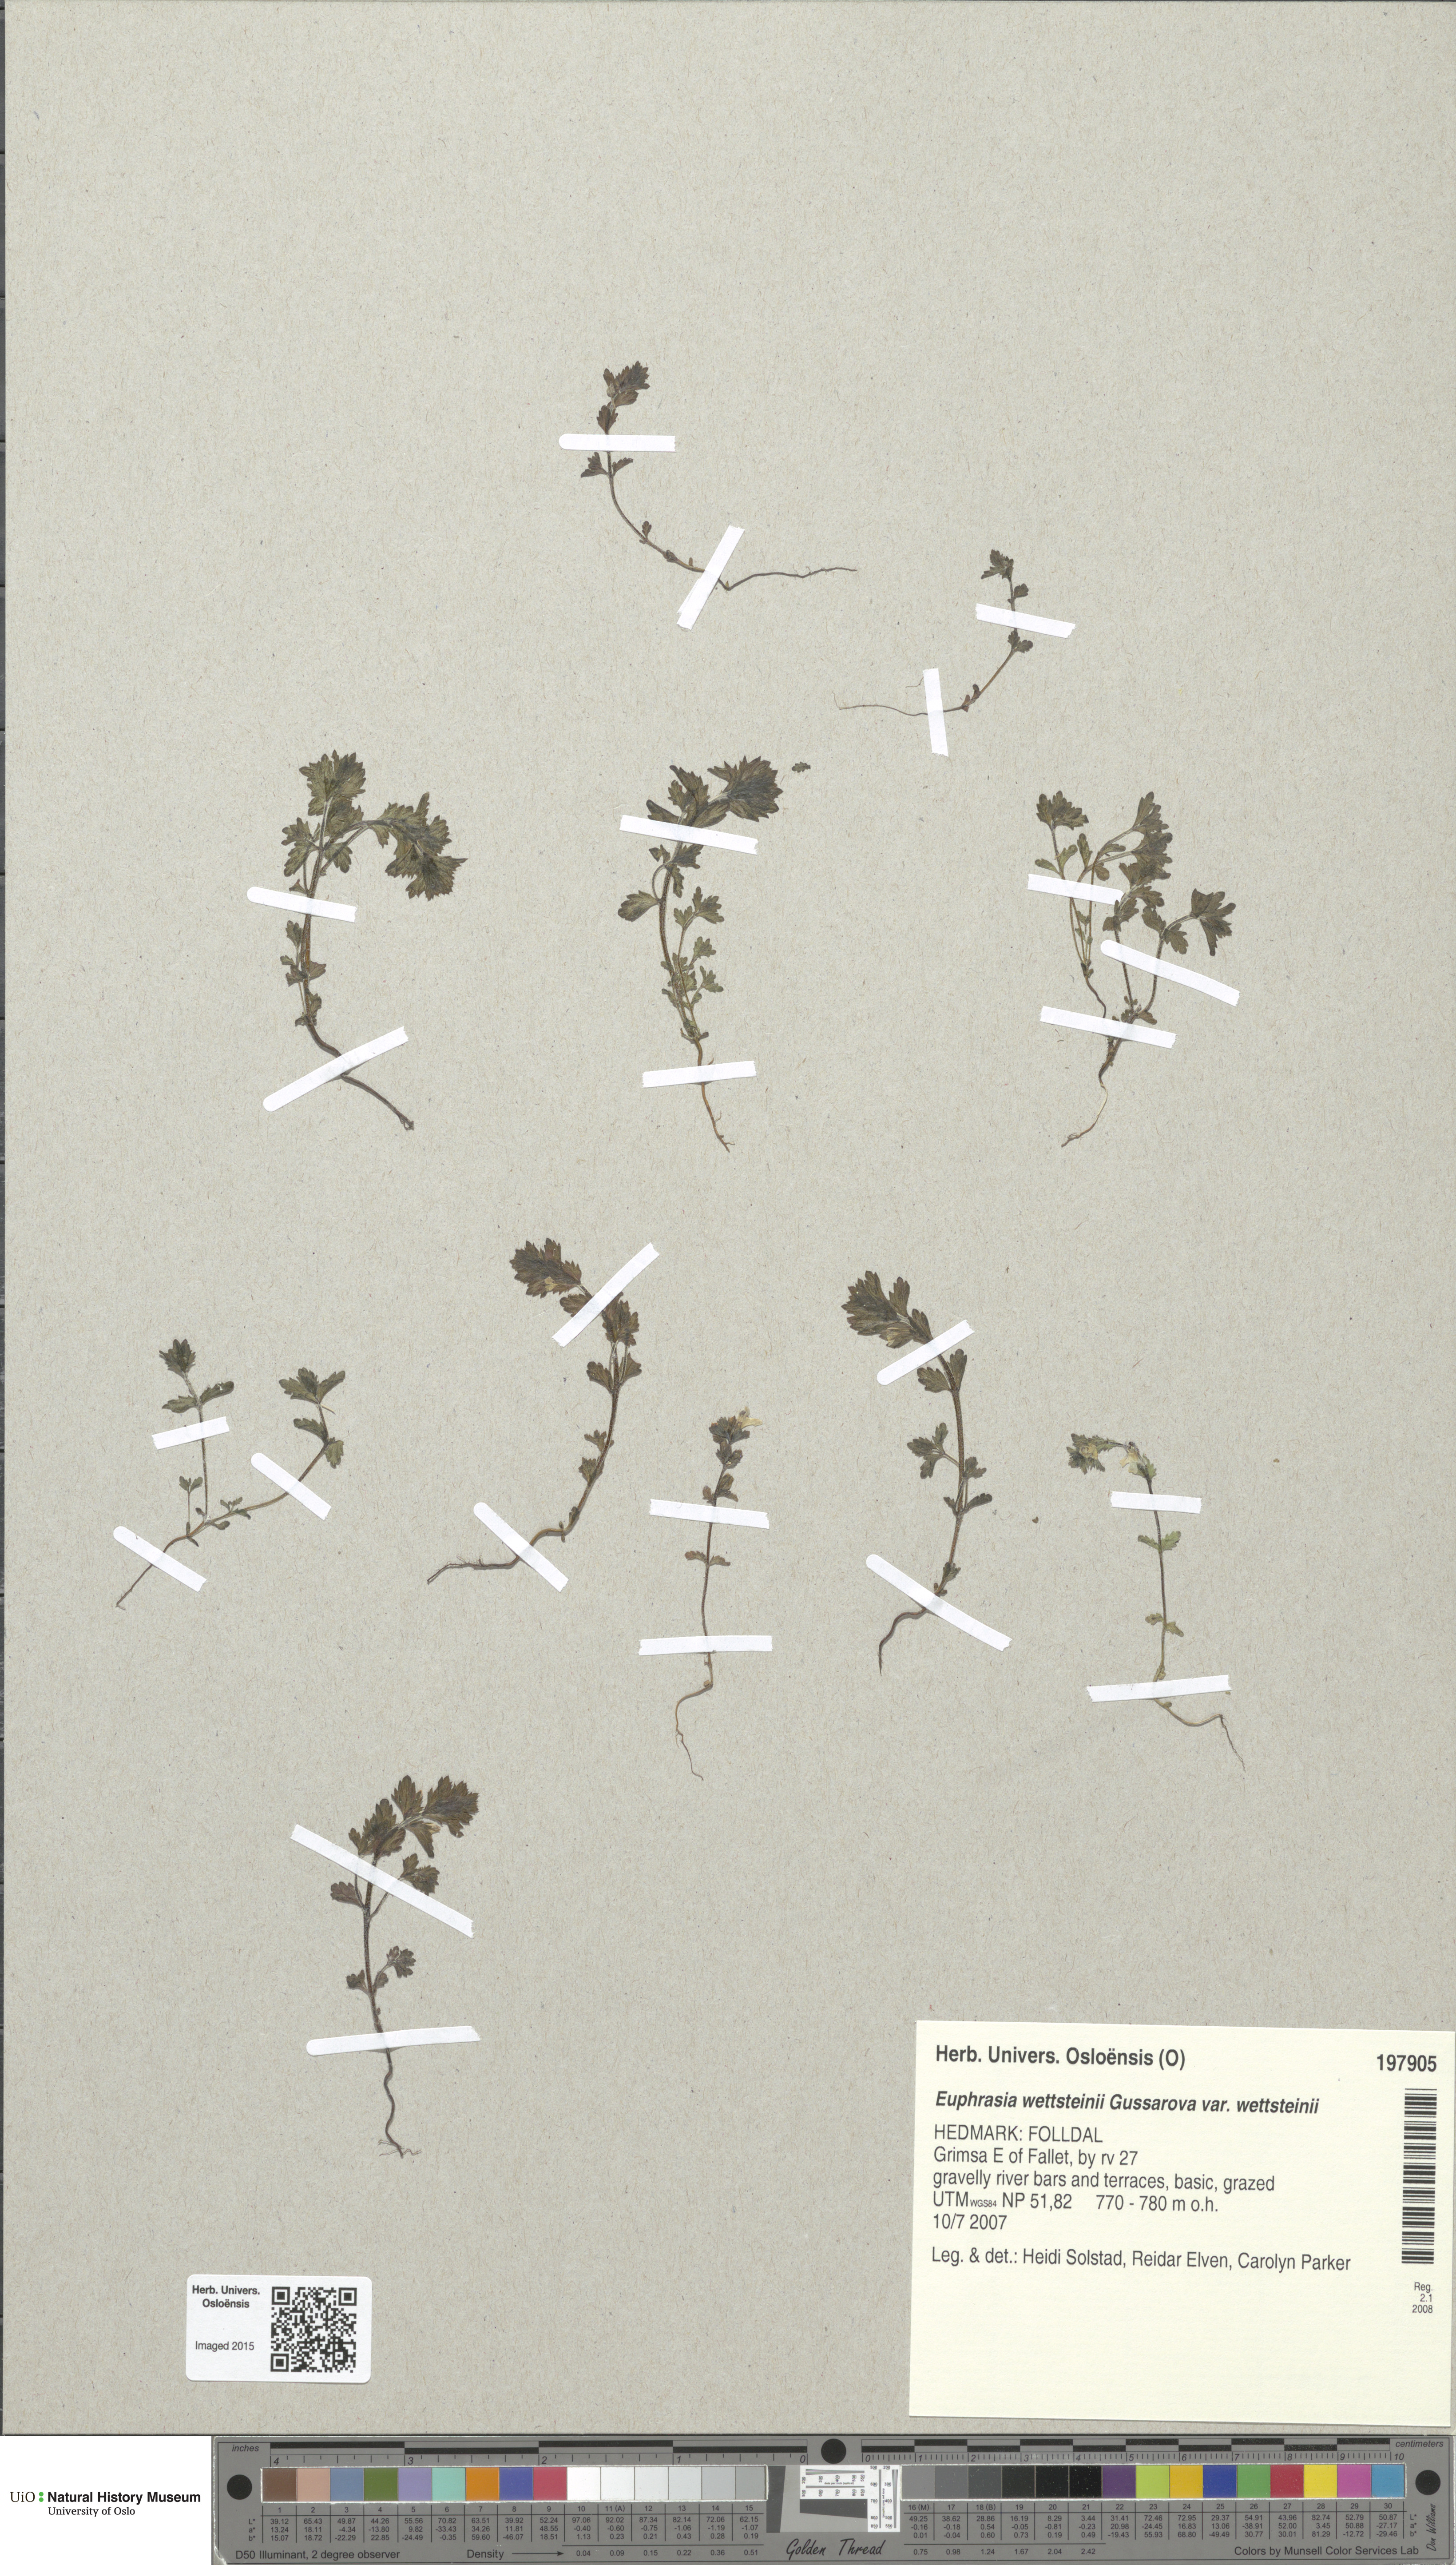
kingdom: Plantae
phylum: Tracheophyta
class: Magnoliopsida
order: Lamiales
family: Orobanchaceae
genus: Euphrasia
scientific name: Euphrasia wettsteinii
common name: Wettstein's eyebright
